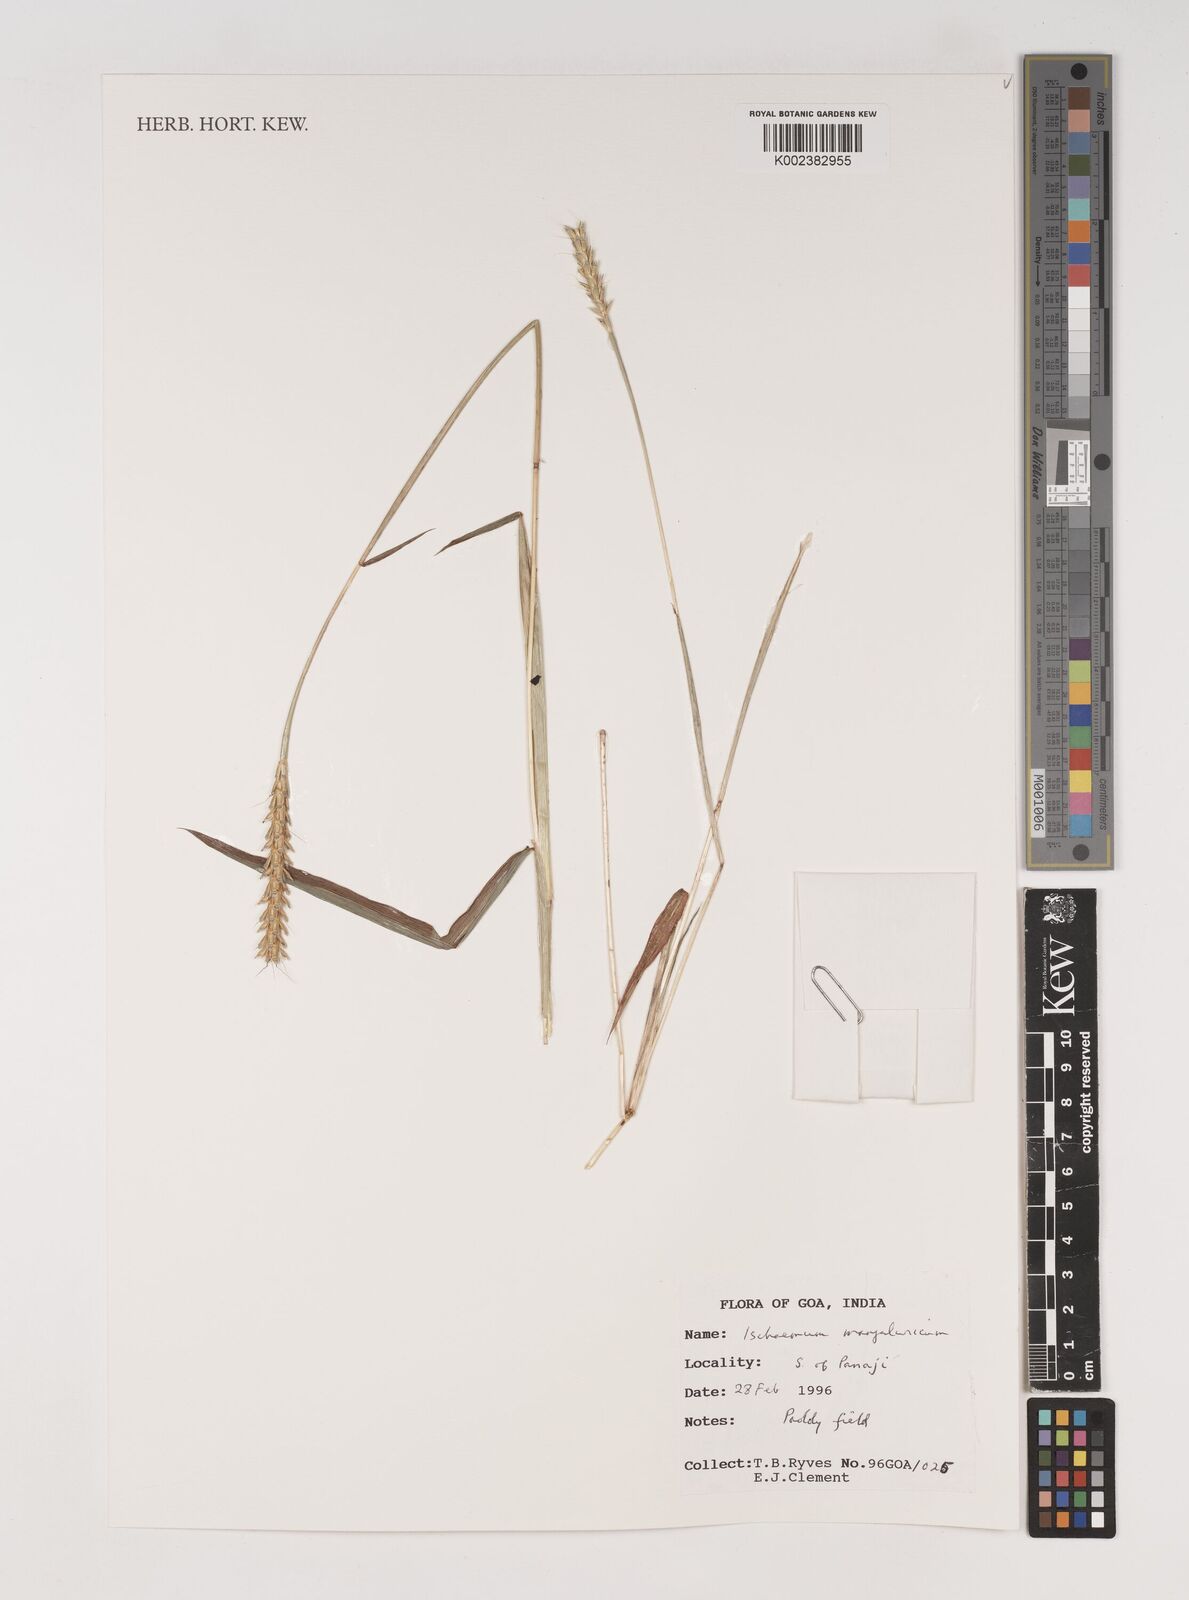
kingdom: Plantae
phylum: Tracheophyta
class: Liliopsida
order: Poales
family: Poaceae
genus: Ischaemum
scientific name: Ischaemum barbatum
